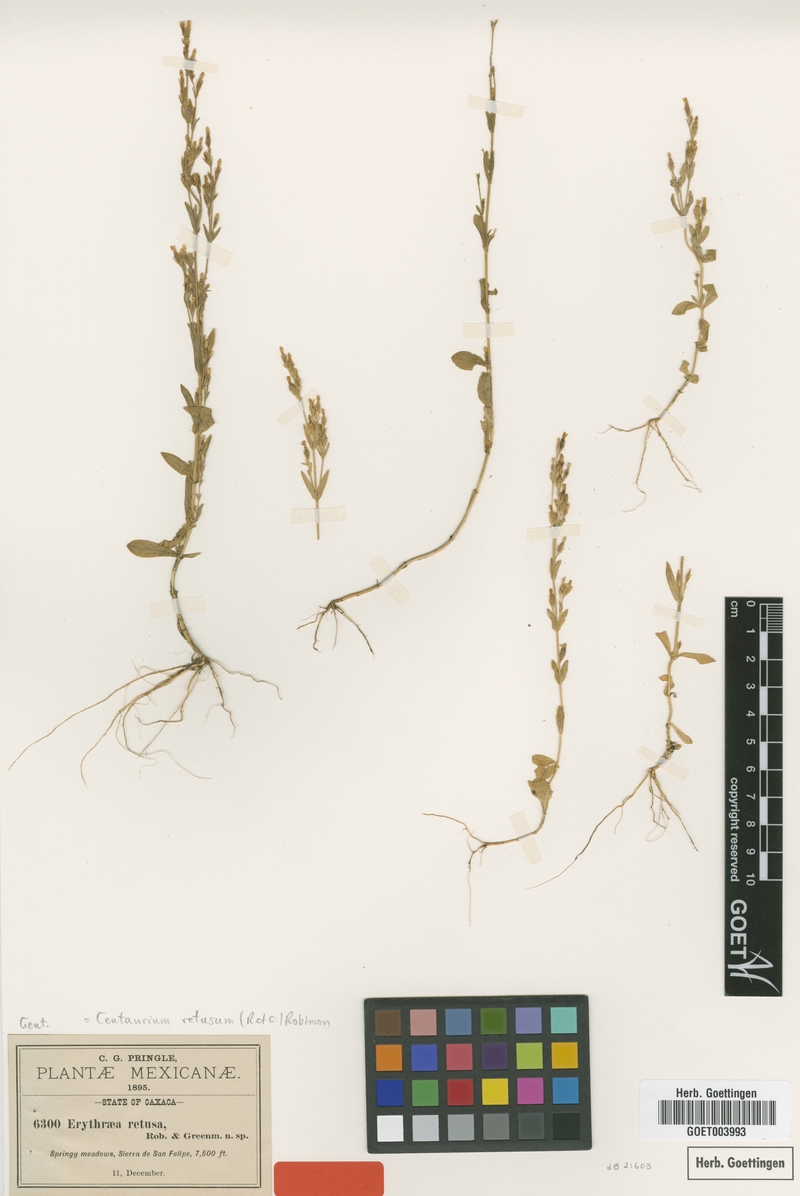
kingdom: Plantae
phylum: Tracheophyta
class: Magnoliopsida
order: Gentianales
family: Gentianaceae
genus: Zeltnera
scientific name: Zeltnera stricta
